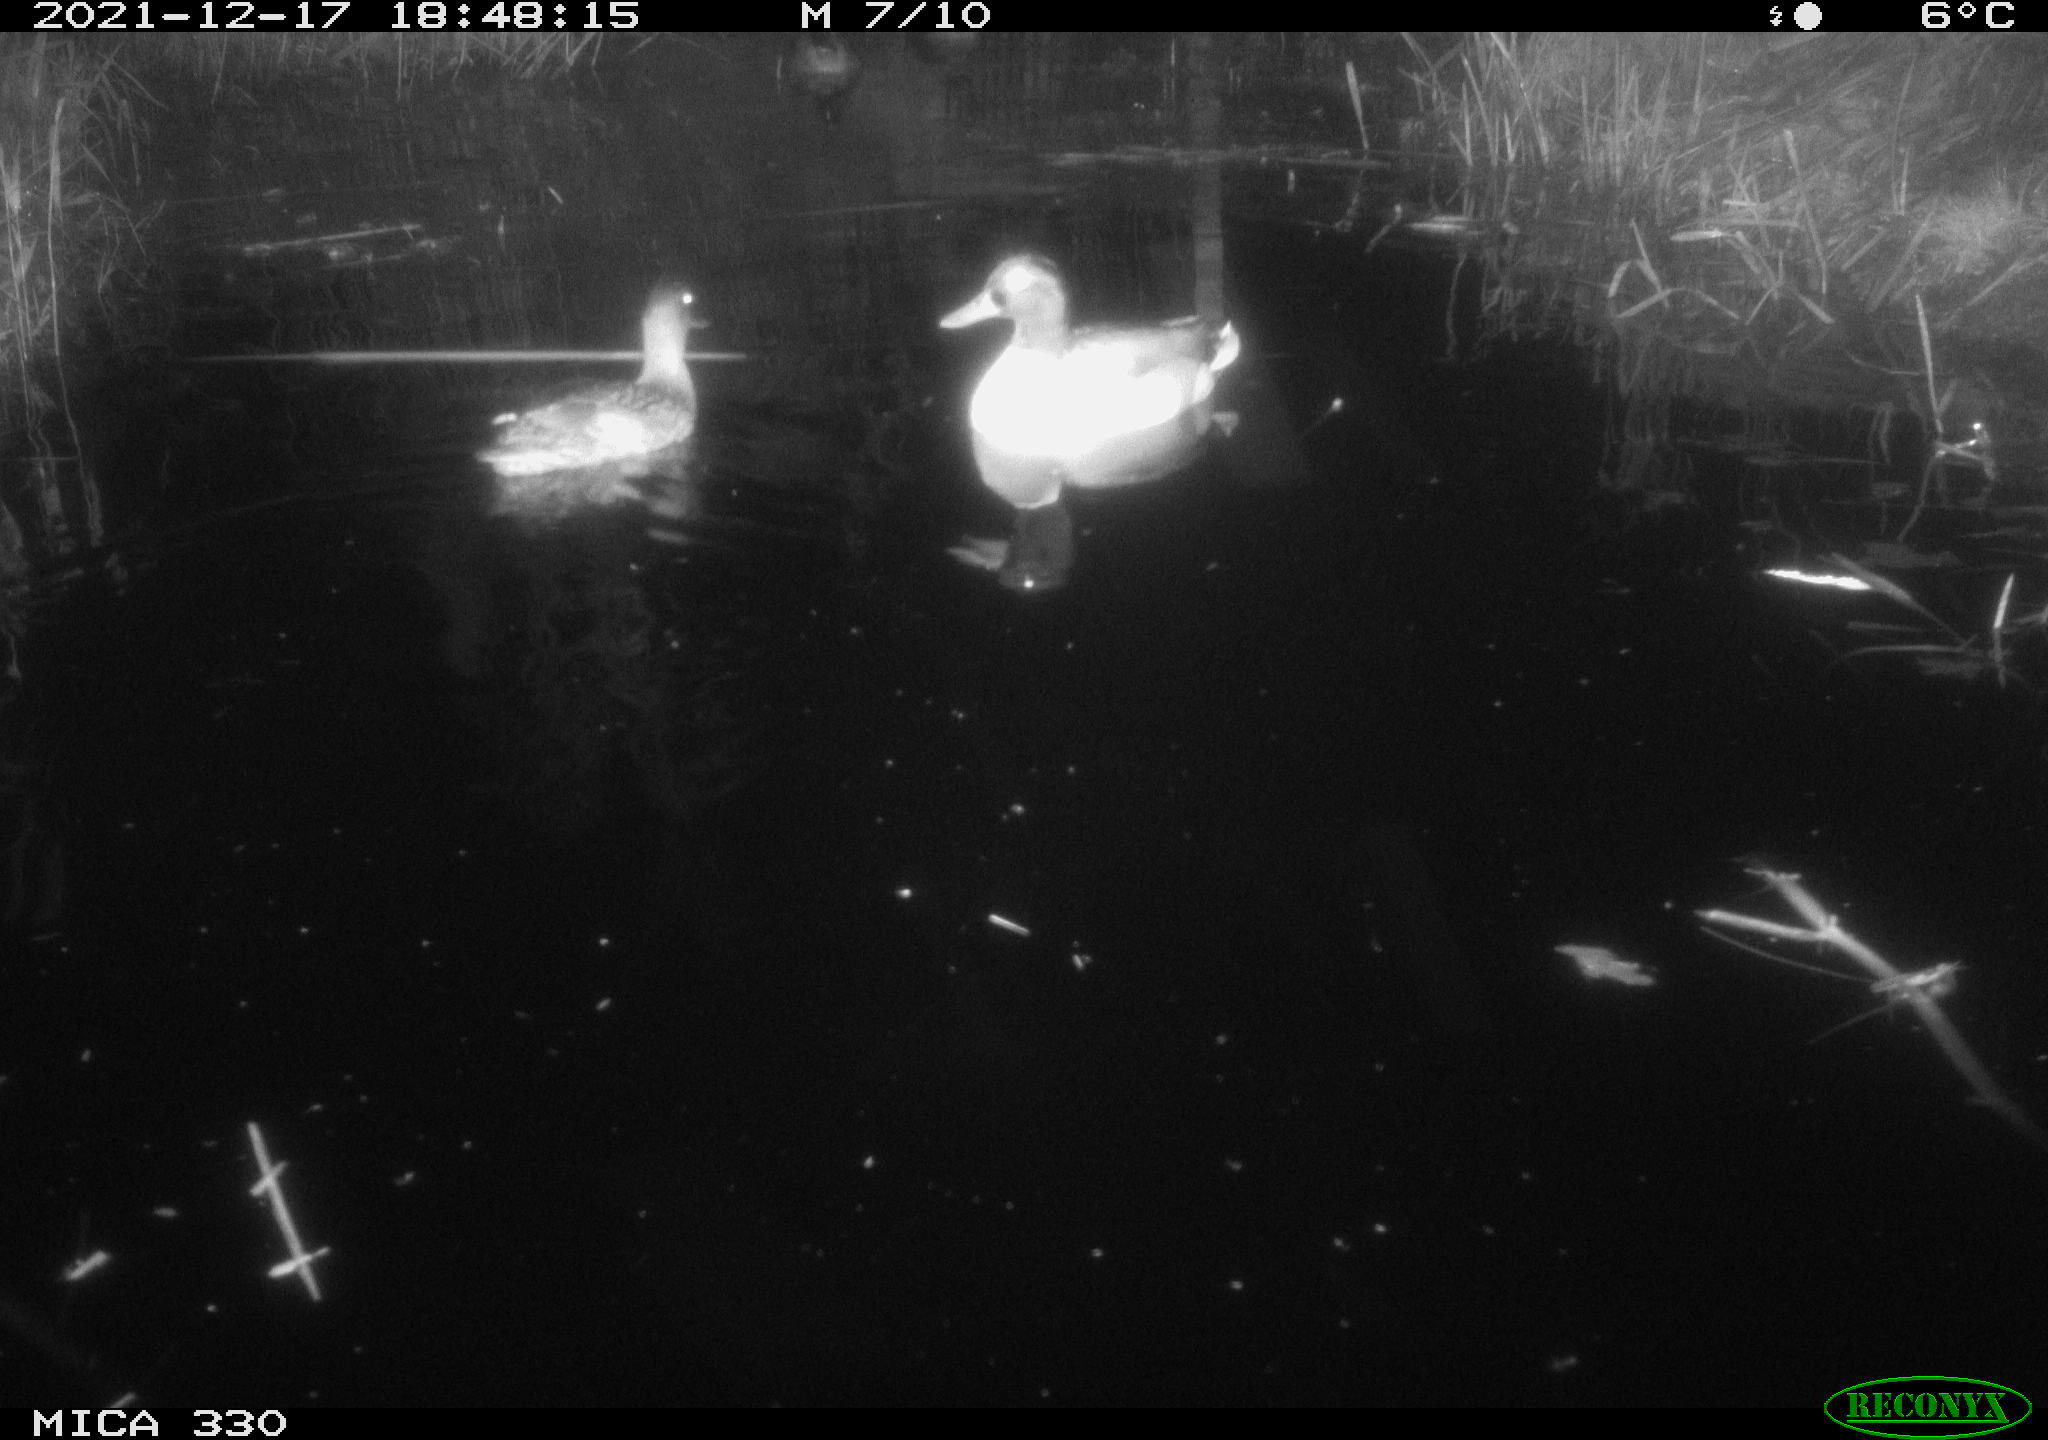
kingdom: Animalia
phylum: Chordata
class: Aves
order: Anseriformes
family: Anatidae
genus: Anas
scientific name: Anas platyrhynchos
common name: Mallard
